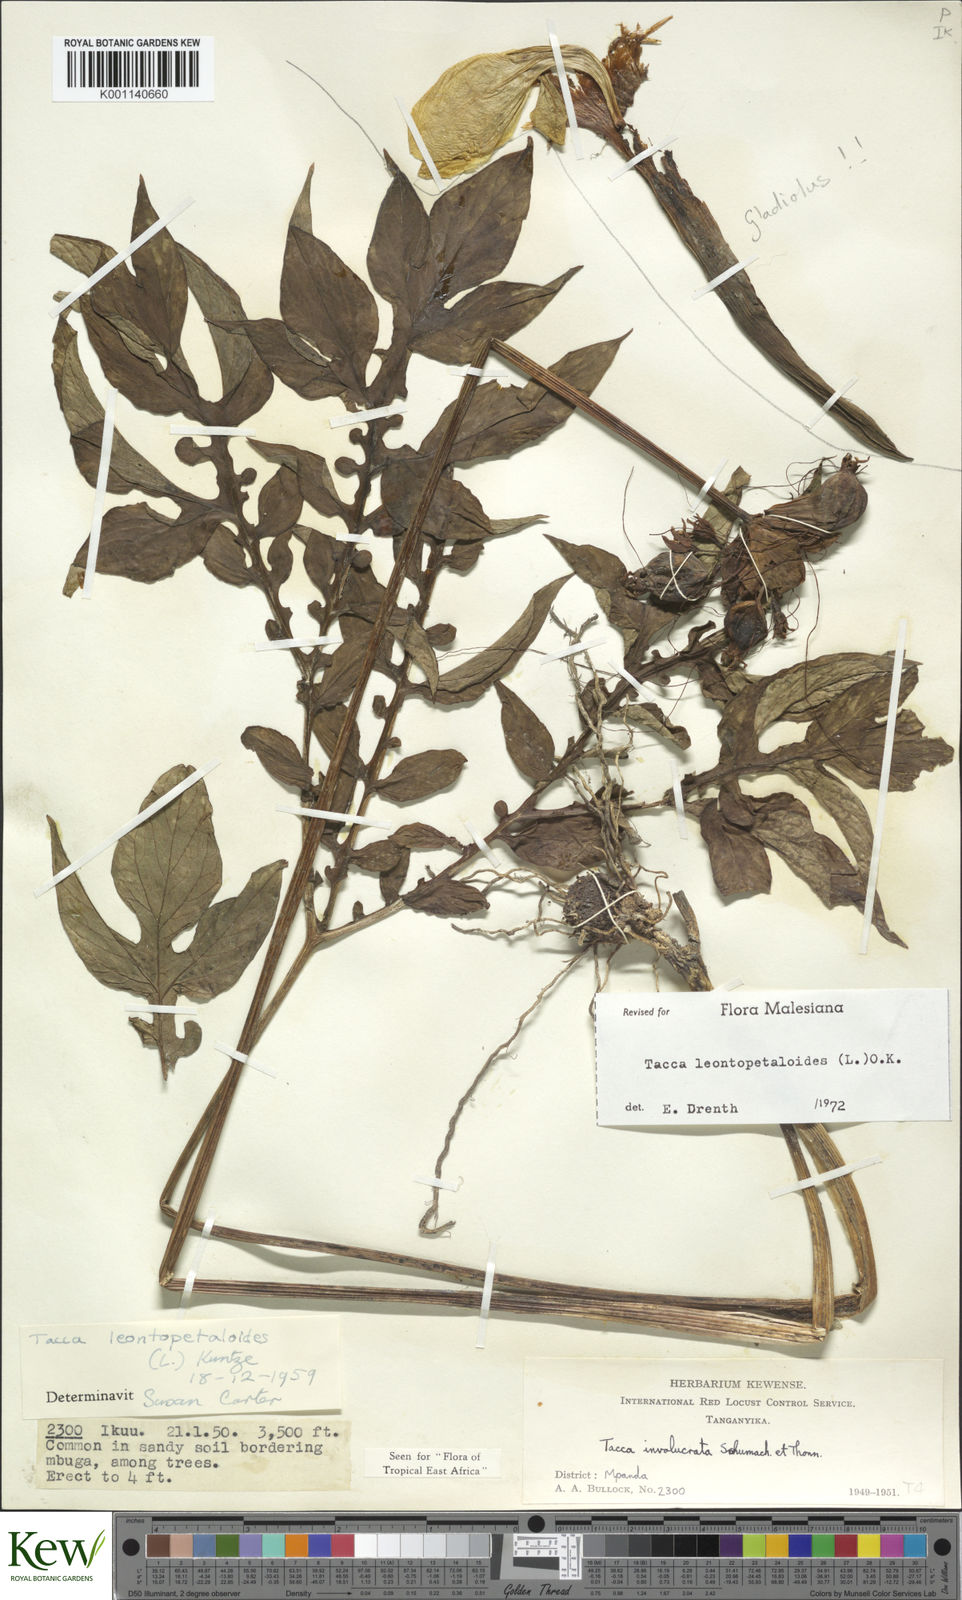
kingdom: Plantae
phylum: Tracheophyta
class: Liliopsida
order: Dioscoreales
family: Dioscoreaceae
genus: Tacca
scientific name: Tacca leontopetaloides
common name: Arrowroot
